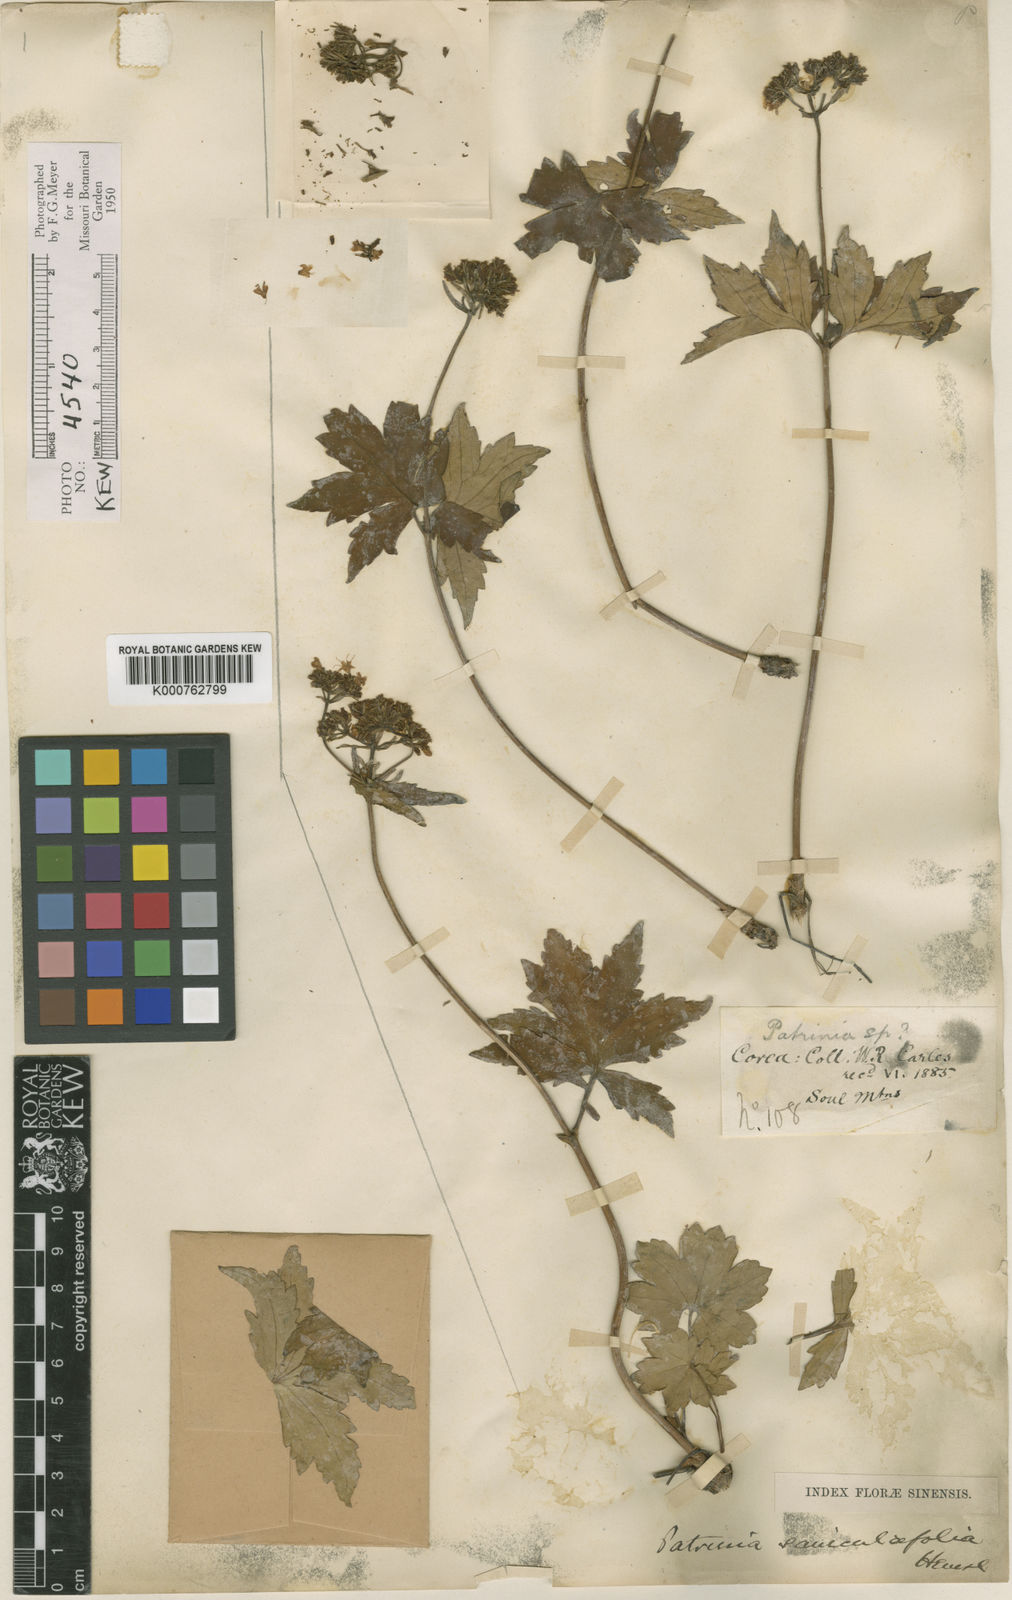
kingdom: Plantae
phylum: Tracheophyta
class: Magnoliopsida
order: Dipsacales
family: Caprifoliaceae
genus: Patrinia
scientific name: Patrinia saniculifolia
